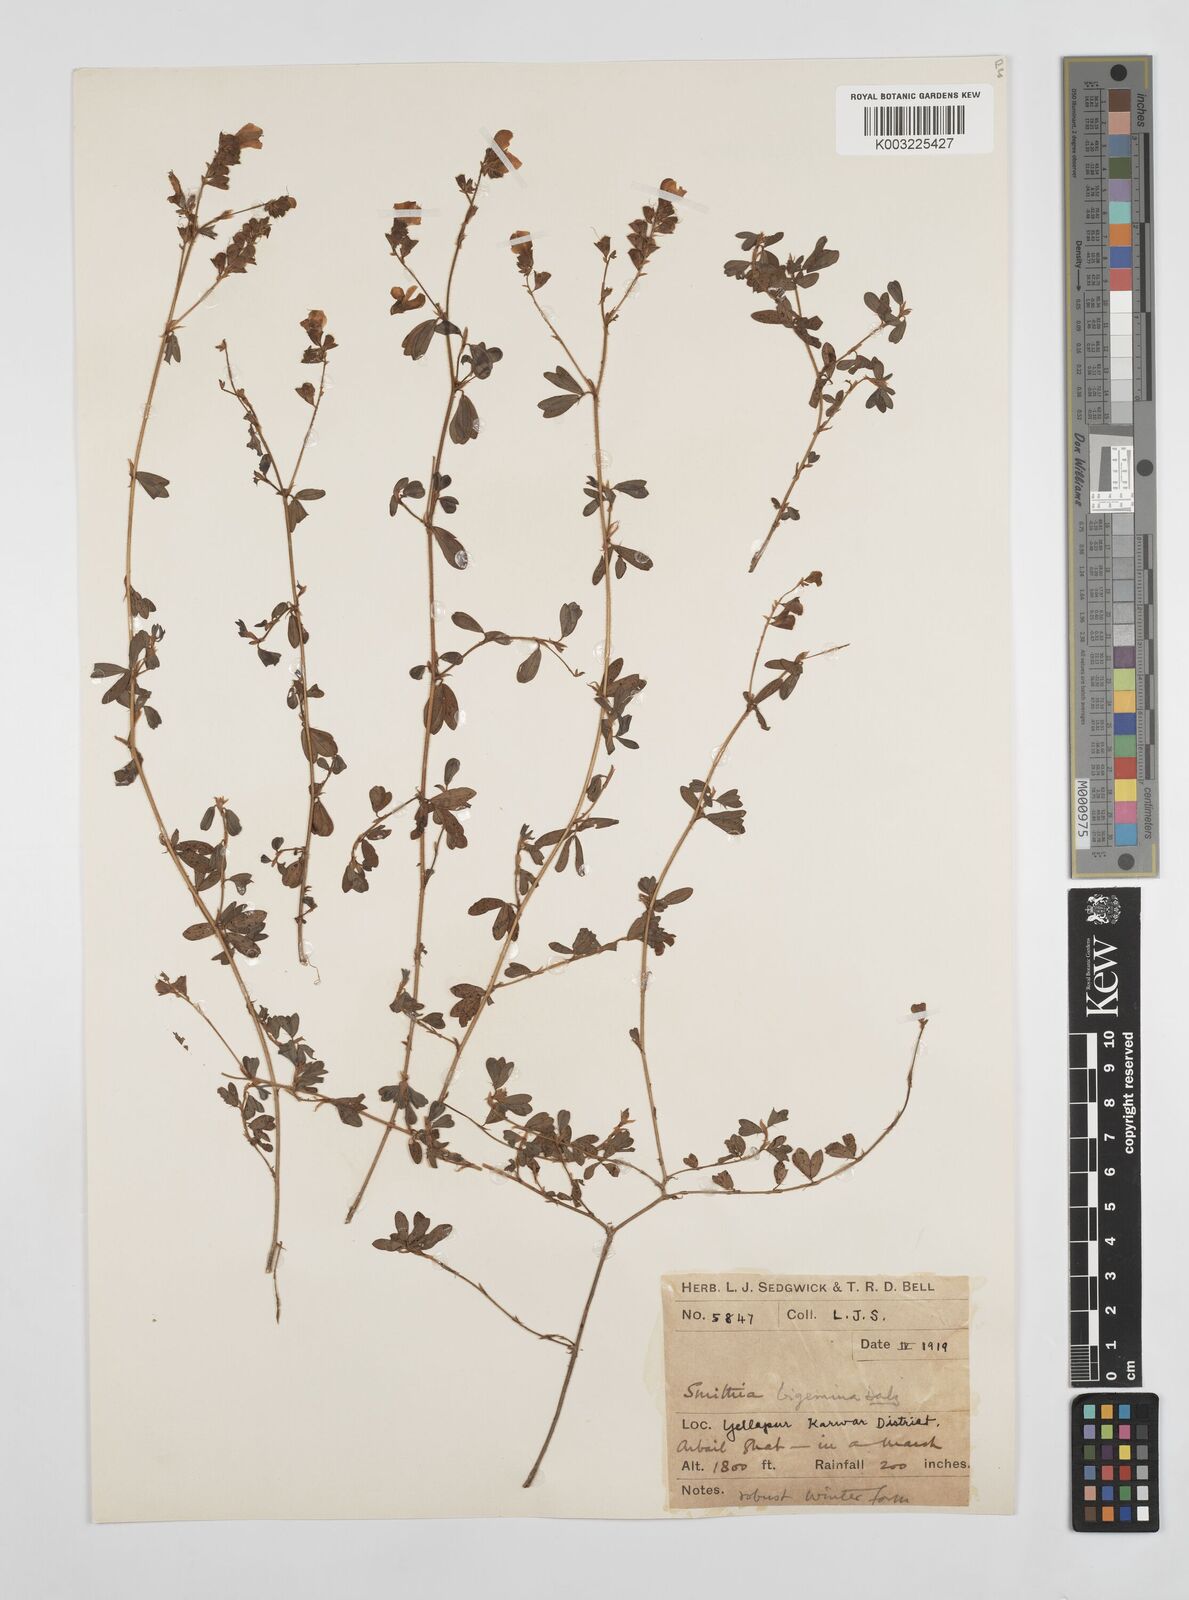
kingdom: Plantae
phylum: Tracheophyta
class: Magnoliopsida
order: Fabales
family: Fabaceae
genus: Smithia
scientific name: Smithia bigemina
